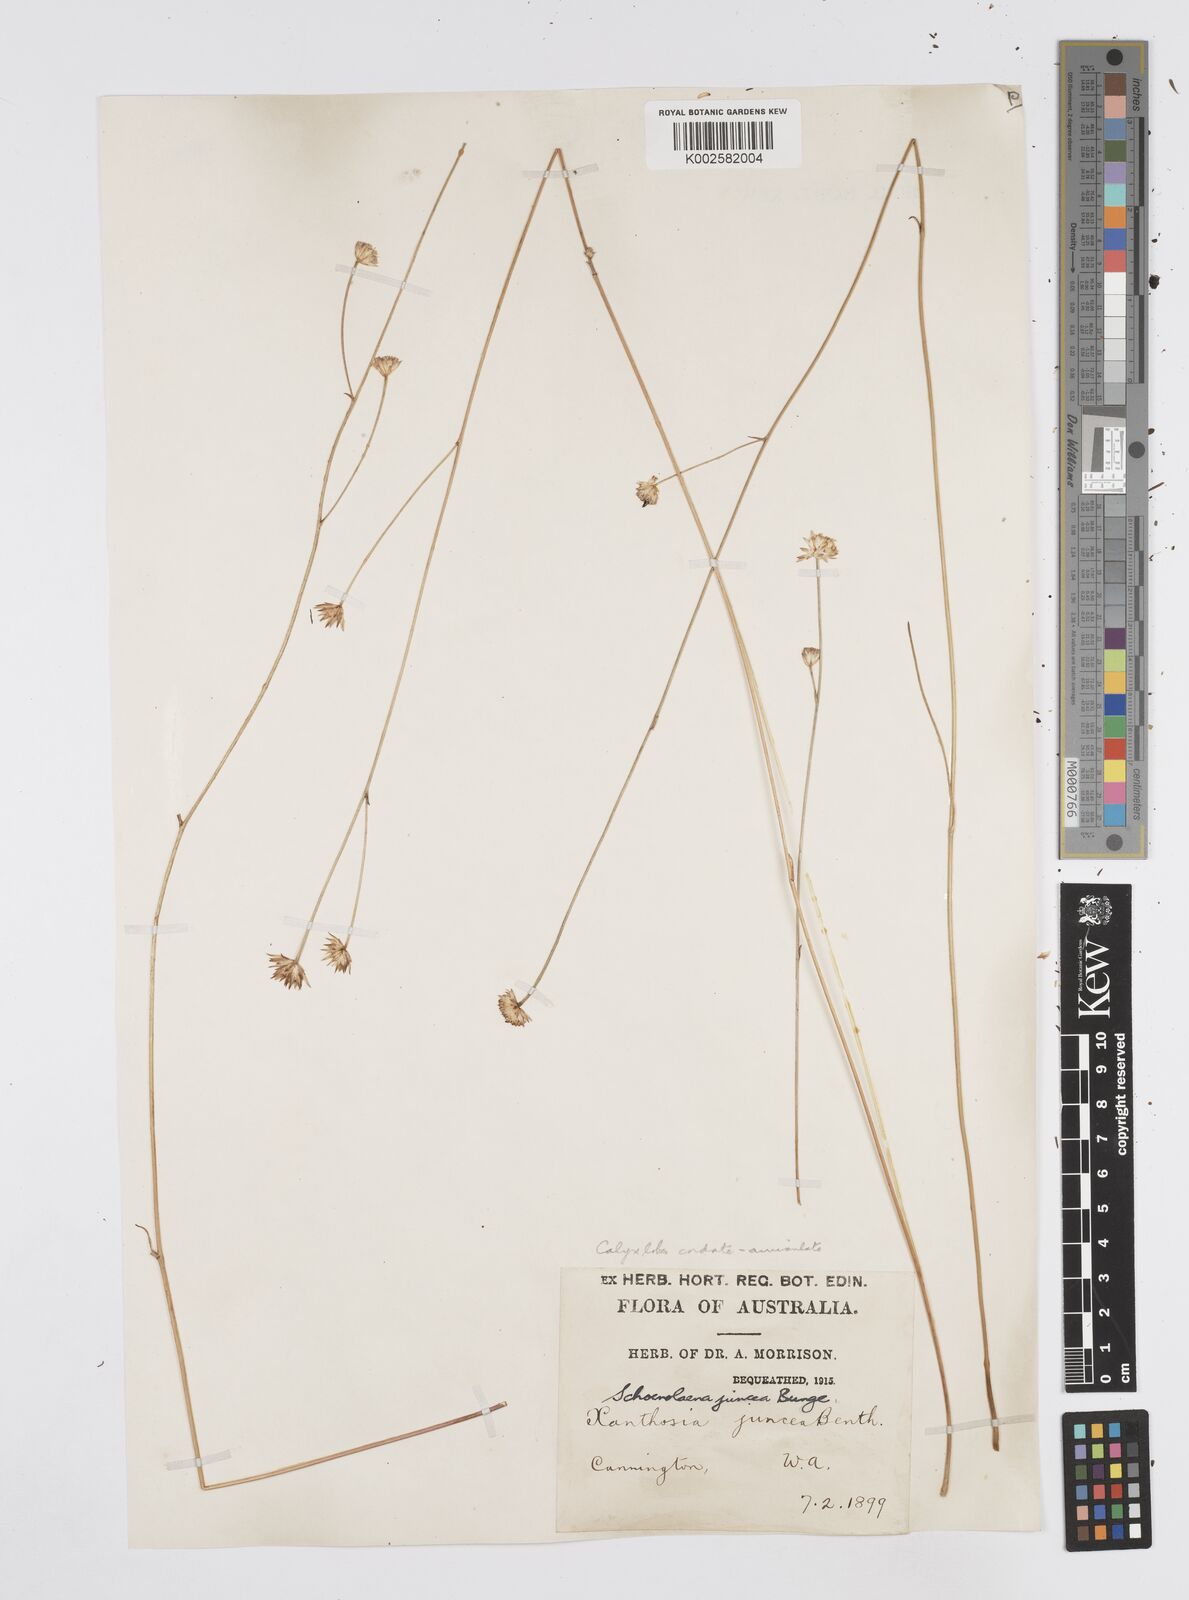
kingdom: Plantae
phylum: Tracheophyta
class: Magnoliopsida
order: Apiales
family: Apiaceae
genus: Schoenolaena
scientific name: Schoenolaena juncea
